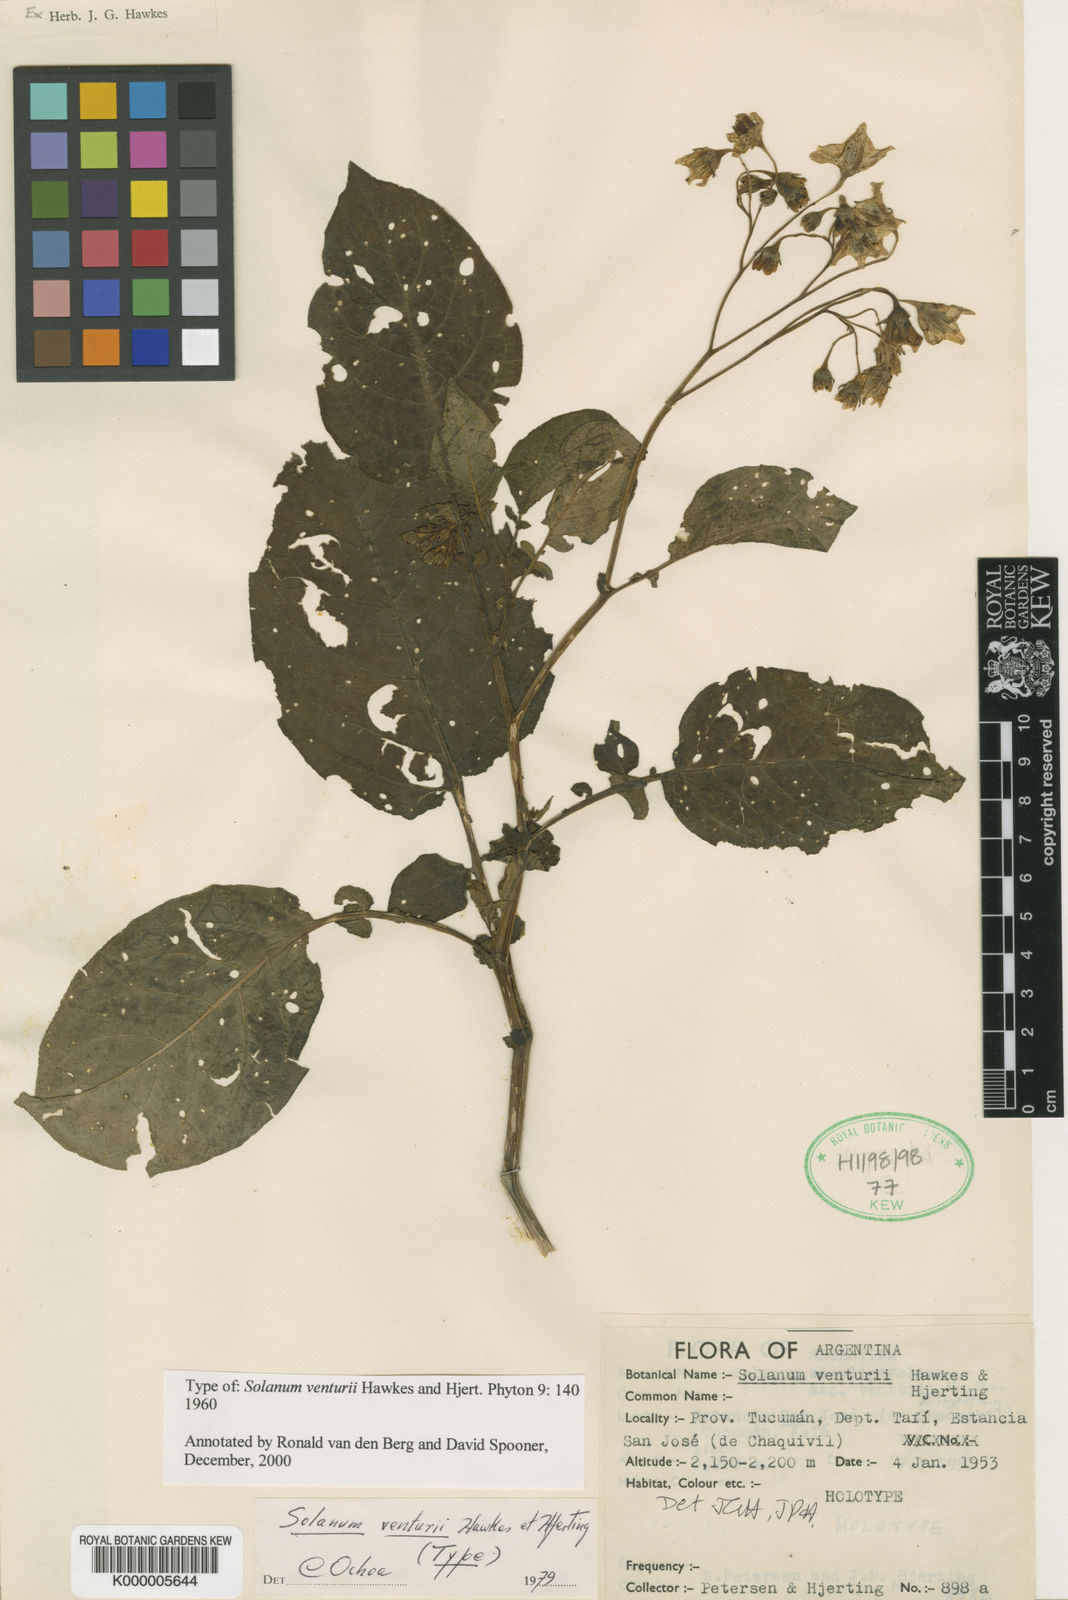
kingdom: Plantae
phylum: Tracheophyta
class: Magnoliopsida
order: Solanales
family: Solanaceae
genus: Solanum
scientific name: Solanum venturii
